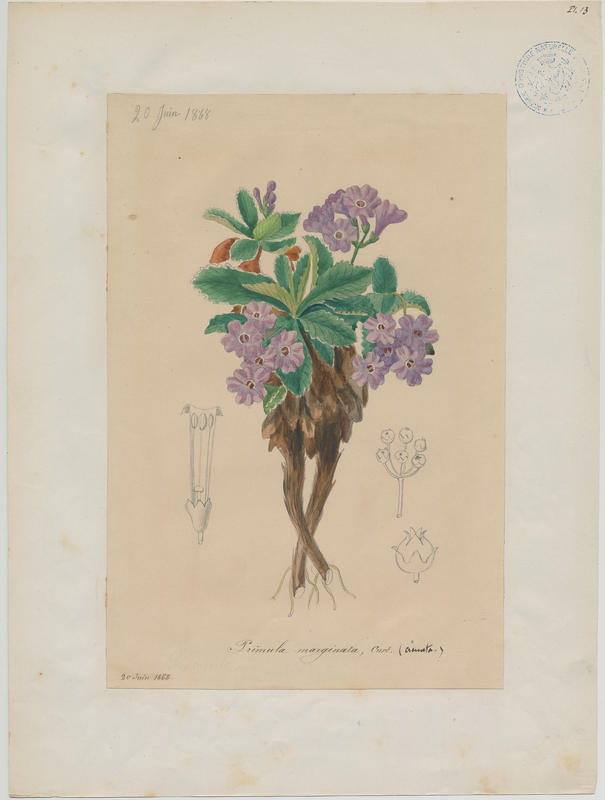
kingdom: Plantae
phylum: Tracheophyta
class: Magnoliopsida
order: Ericales
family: Primulaceae
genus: Primula
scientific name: Primula marginata
